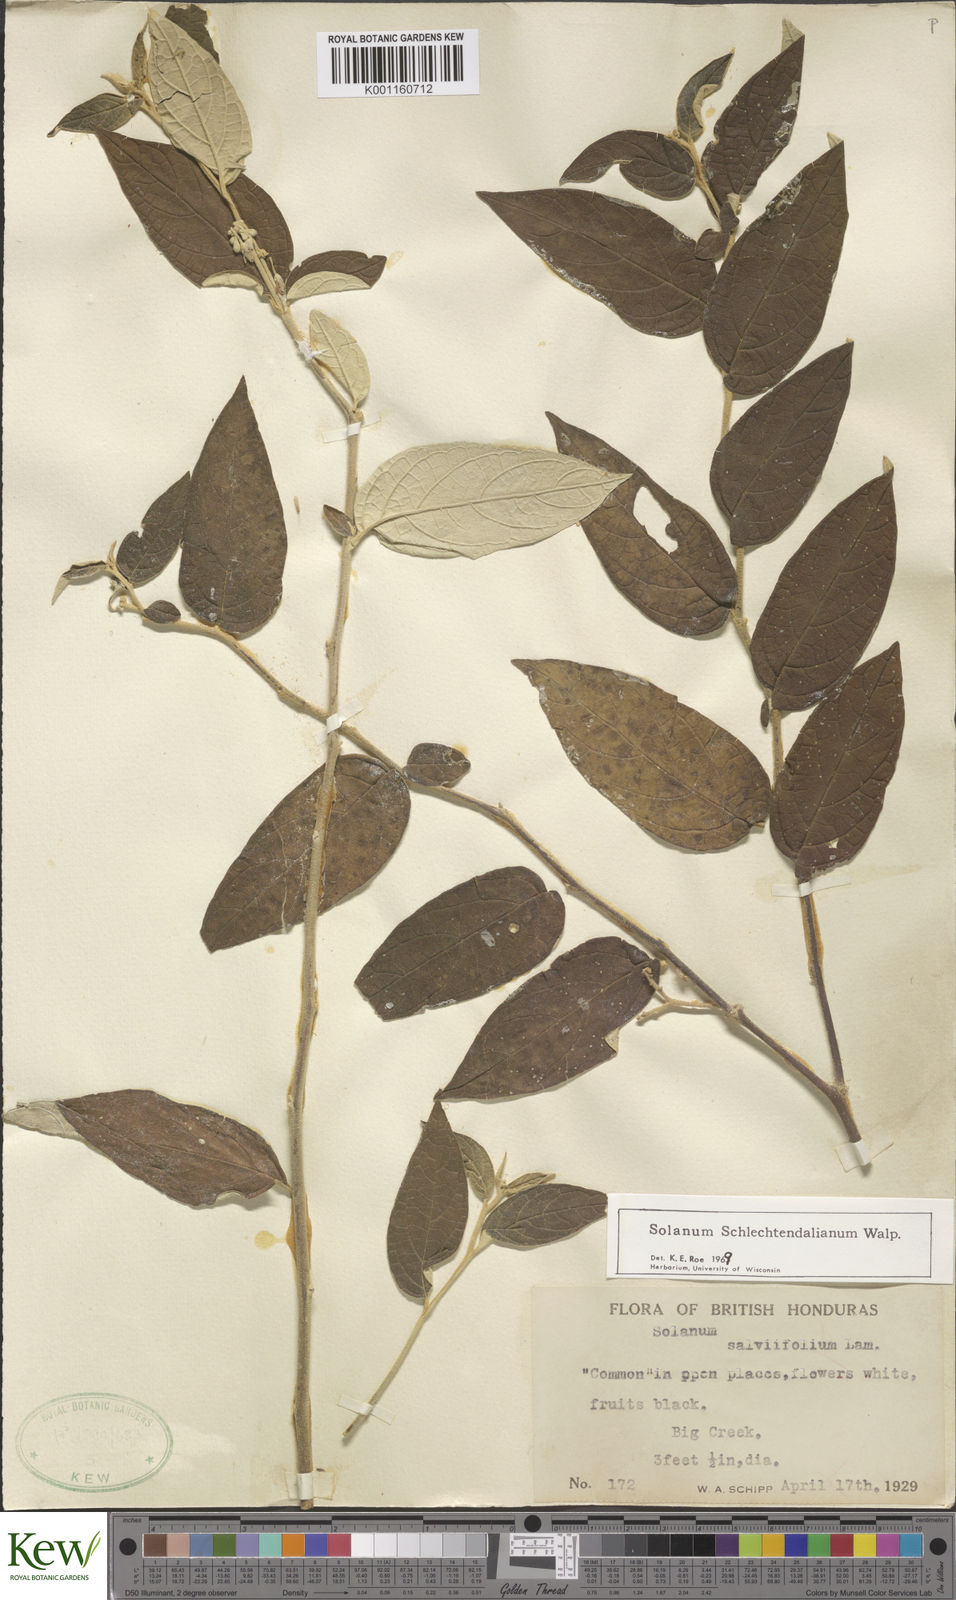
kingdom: Plantae
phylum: Tracheophyta
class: Magnoliopsida
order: Solanales
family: Solanaceae
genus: Solanum
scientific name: Solanum schlechtendalianum
